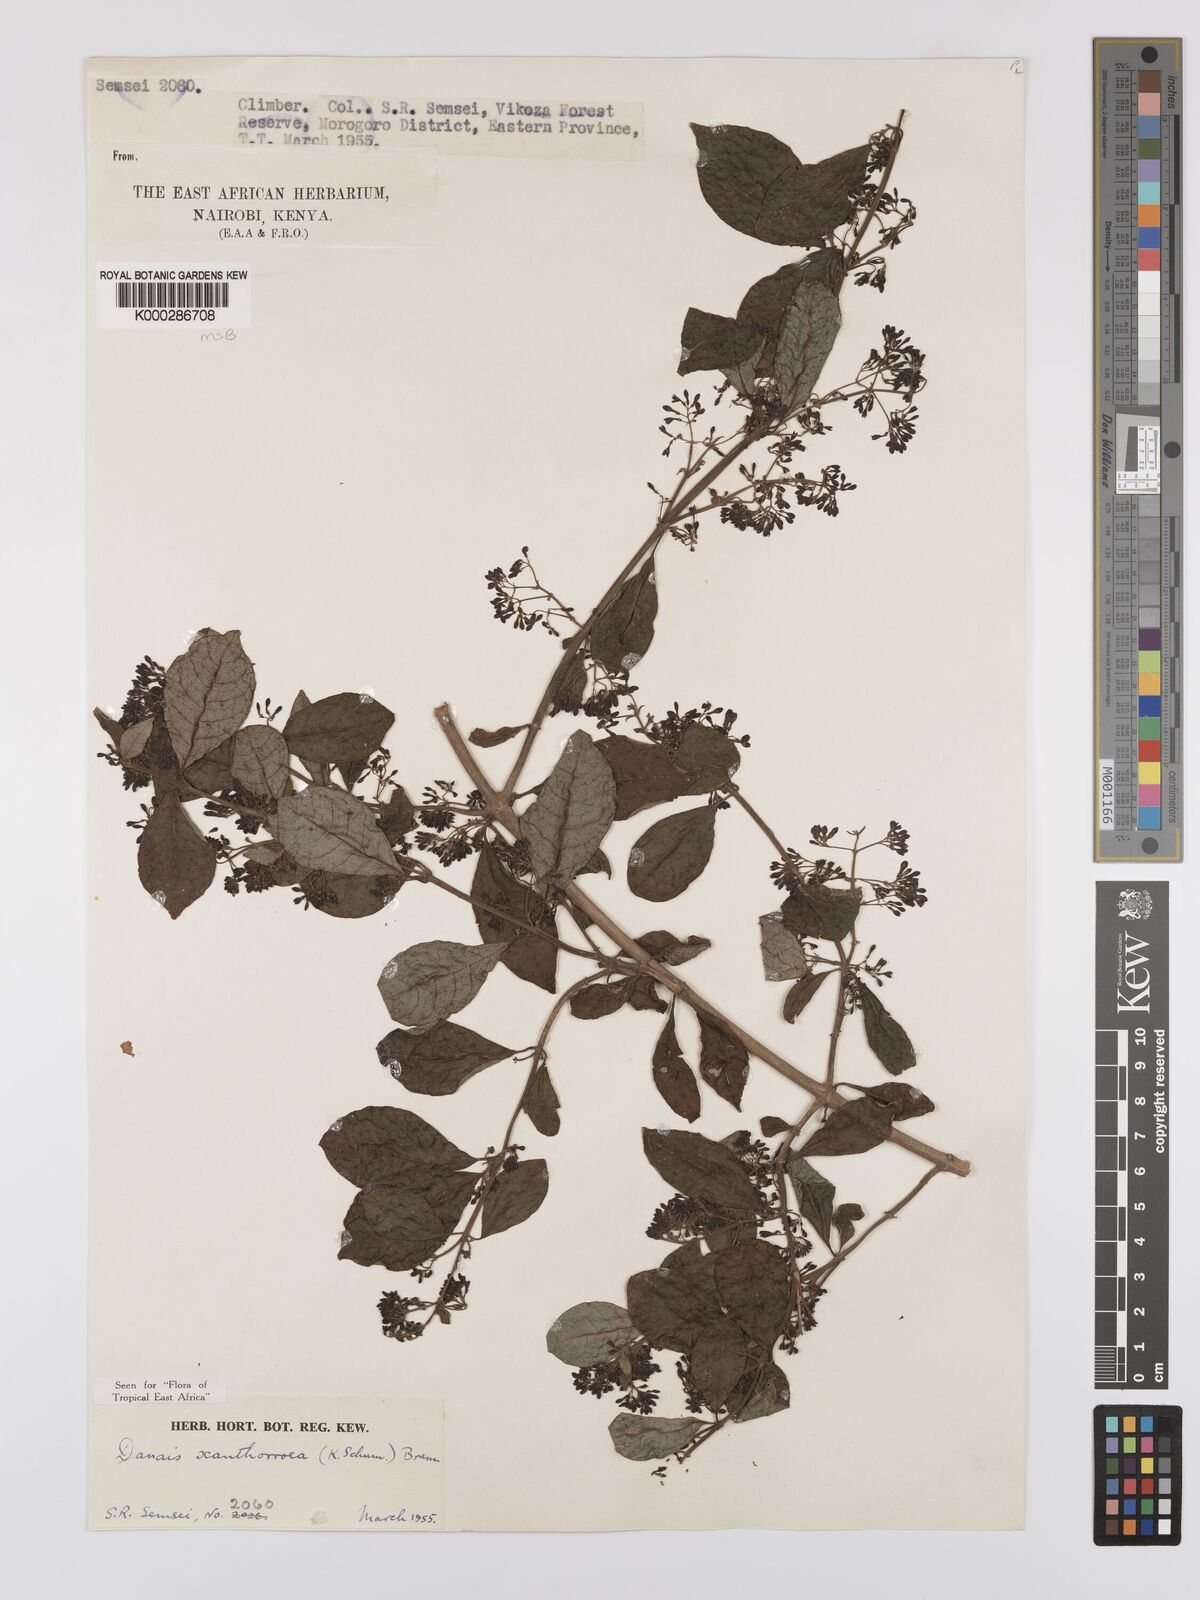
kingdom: Plantae
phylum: Tracheophyta
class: Magnoliopsida
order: Gentianales
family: Rubiaceae
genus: Danais
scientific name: Danais xanthorrhoea
